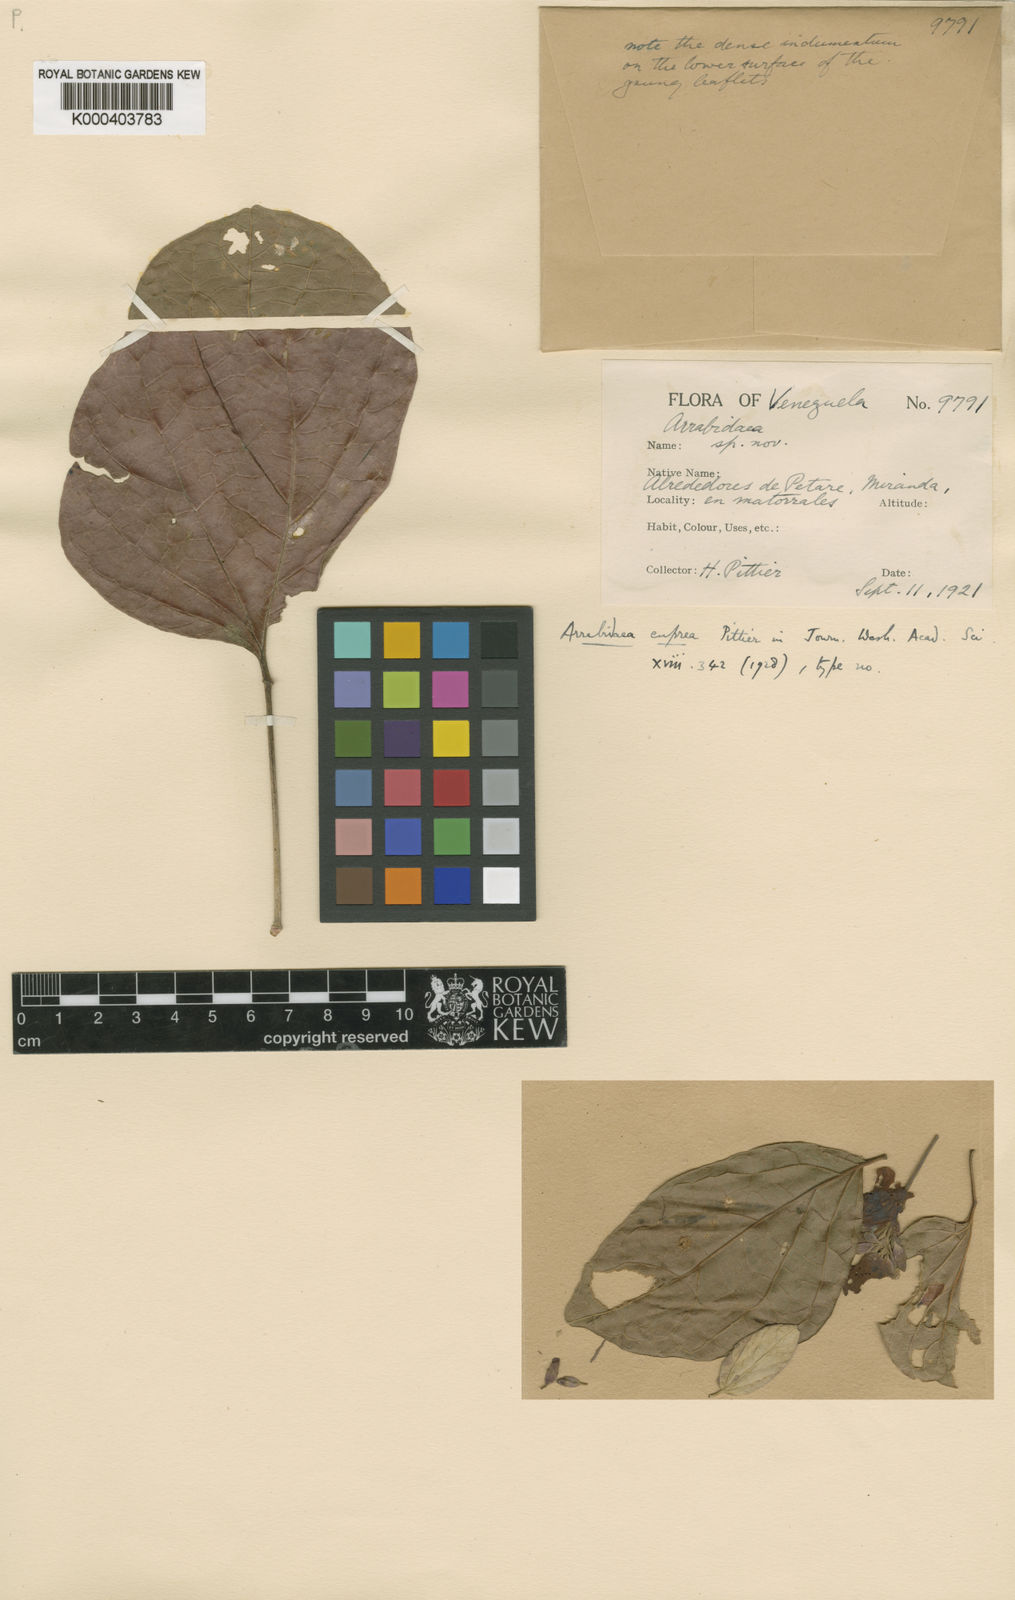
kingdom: Plantae
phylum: Tracheophyta
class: Magnoliopsida
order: Lamiales
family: Bignoniaceae
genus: Fridericia
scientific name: Fridericia chica
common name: Cricketvine
